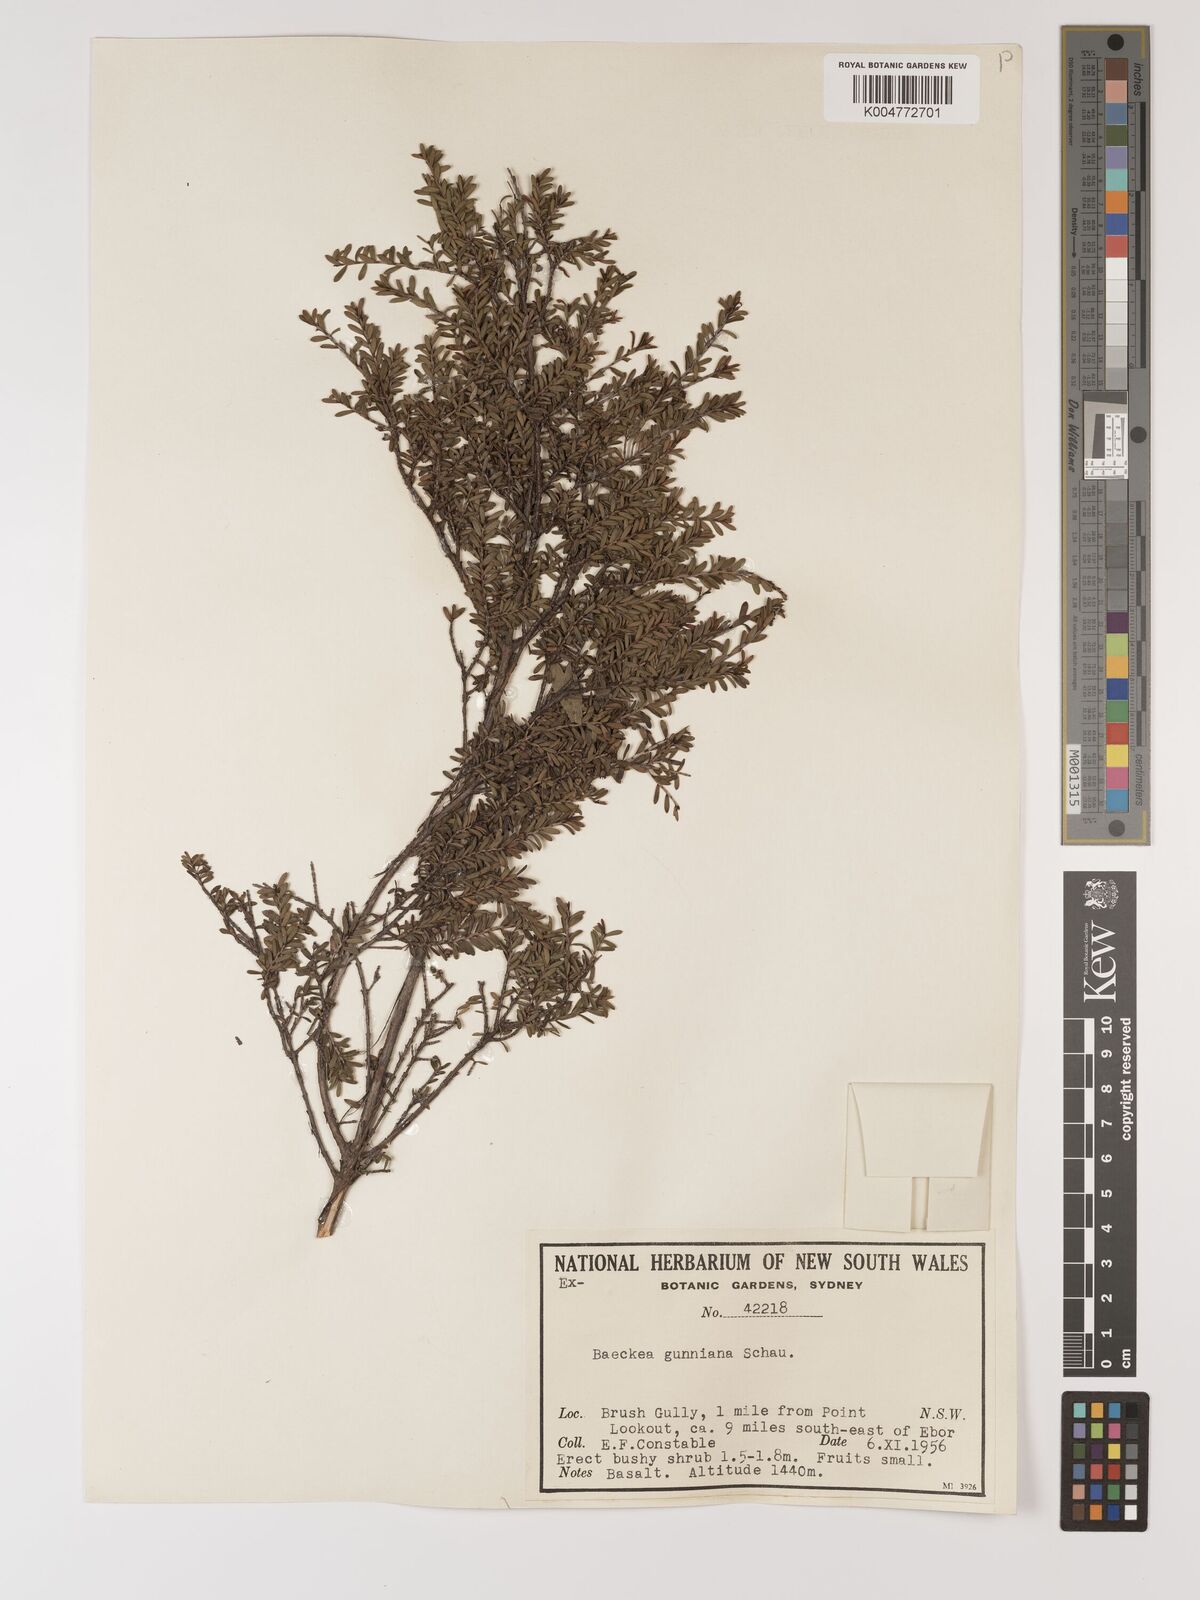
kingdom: Plantae
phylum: Tracheophyta
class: Magnoliopsida
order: Myrtales
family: Myrtaceae
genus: Baeckea
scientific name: Baeckea gunniana
